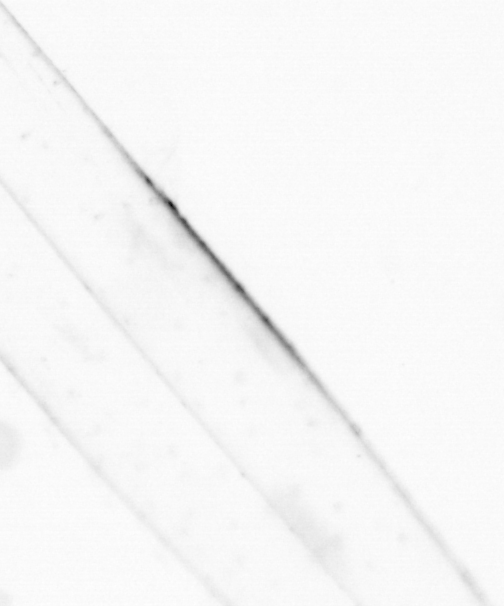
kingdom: Animalia
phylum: Chaetognatha
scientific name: Chaetognatha
